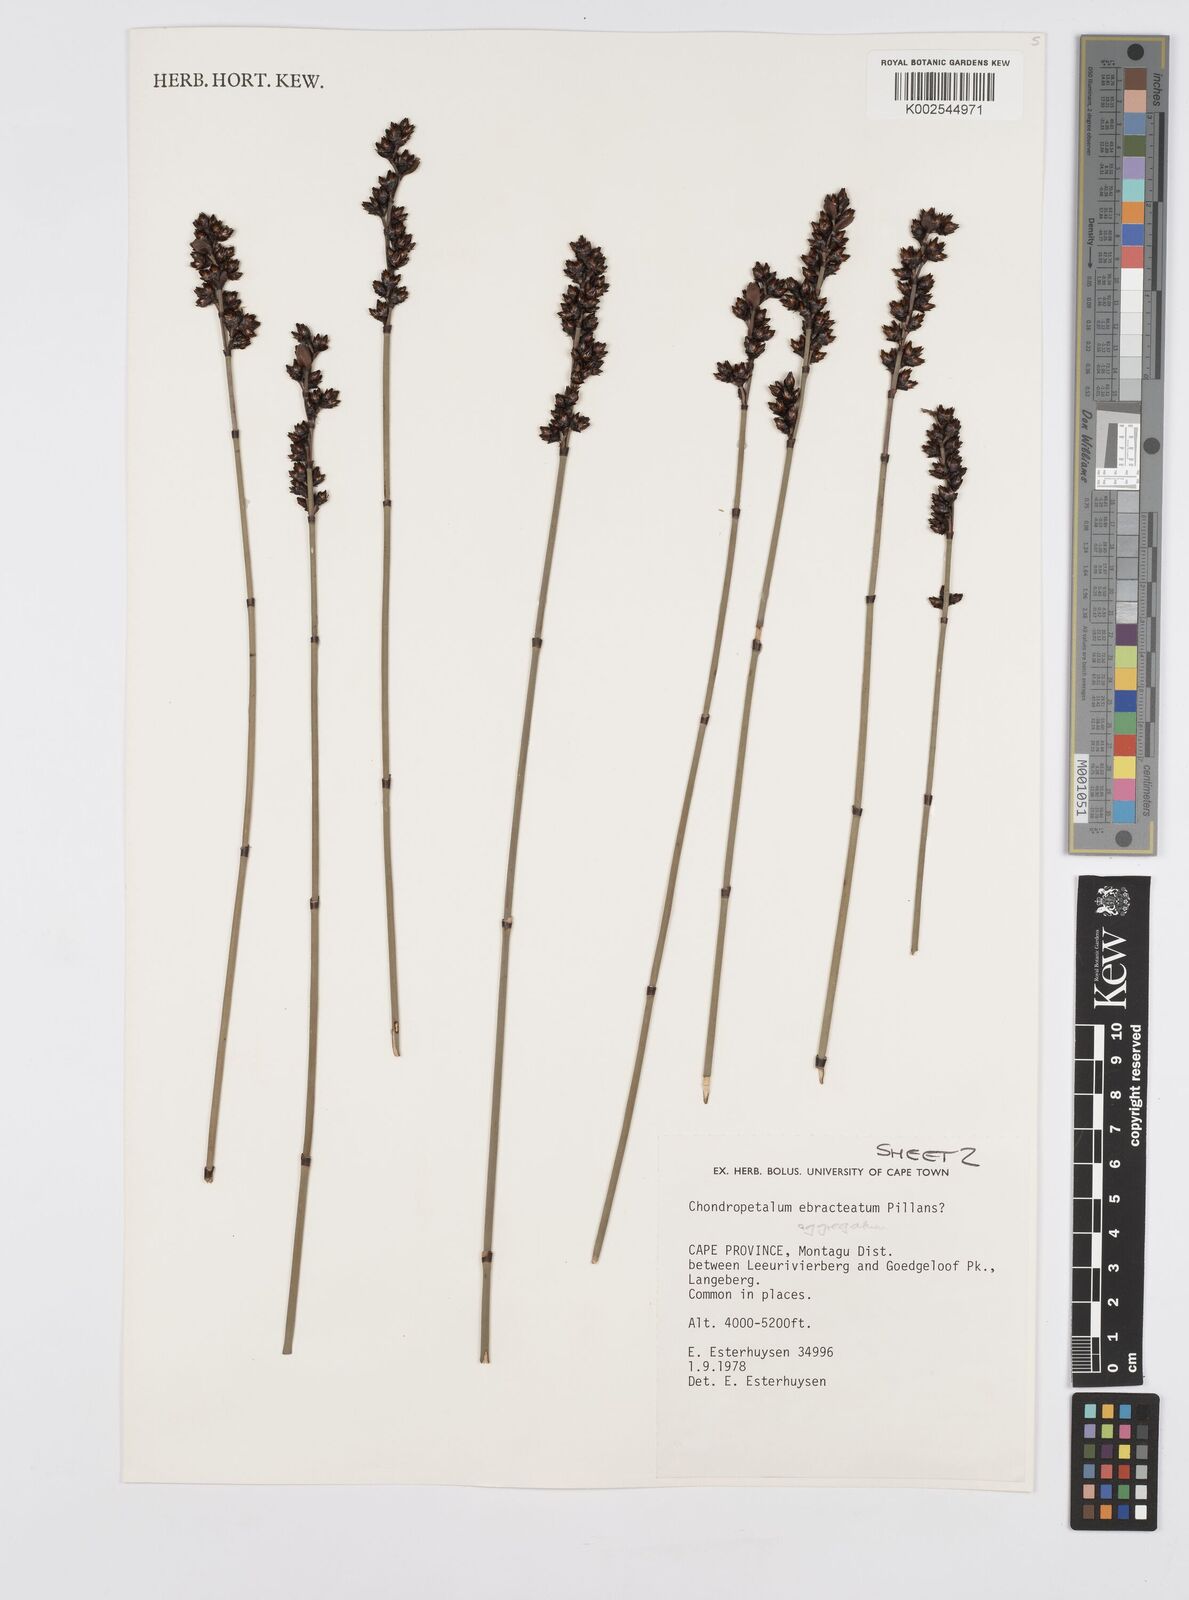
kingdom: Plantae
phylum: Tracheophyta
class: Liliopsida
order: Poales
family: Restionaceae
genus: Elegia
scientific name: Elegia aggregata
